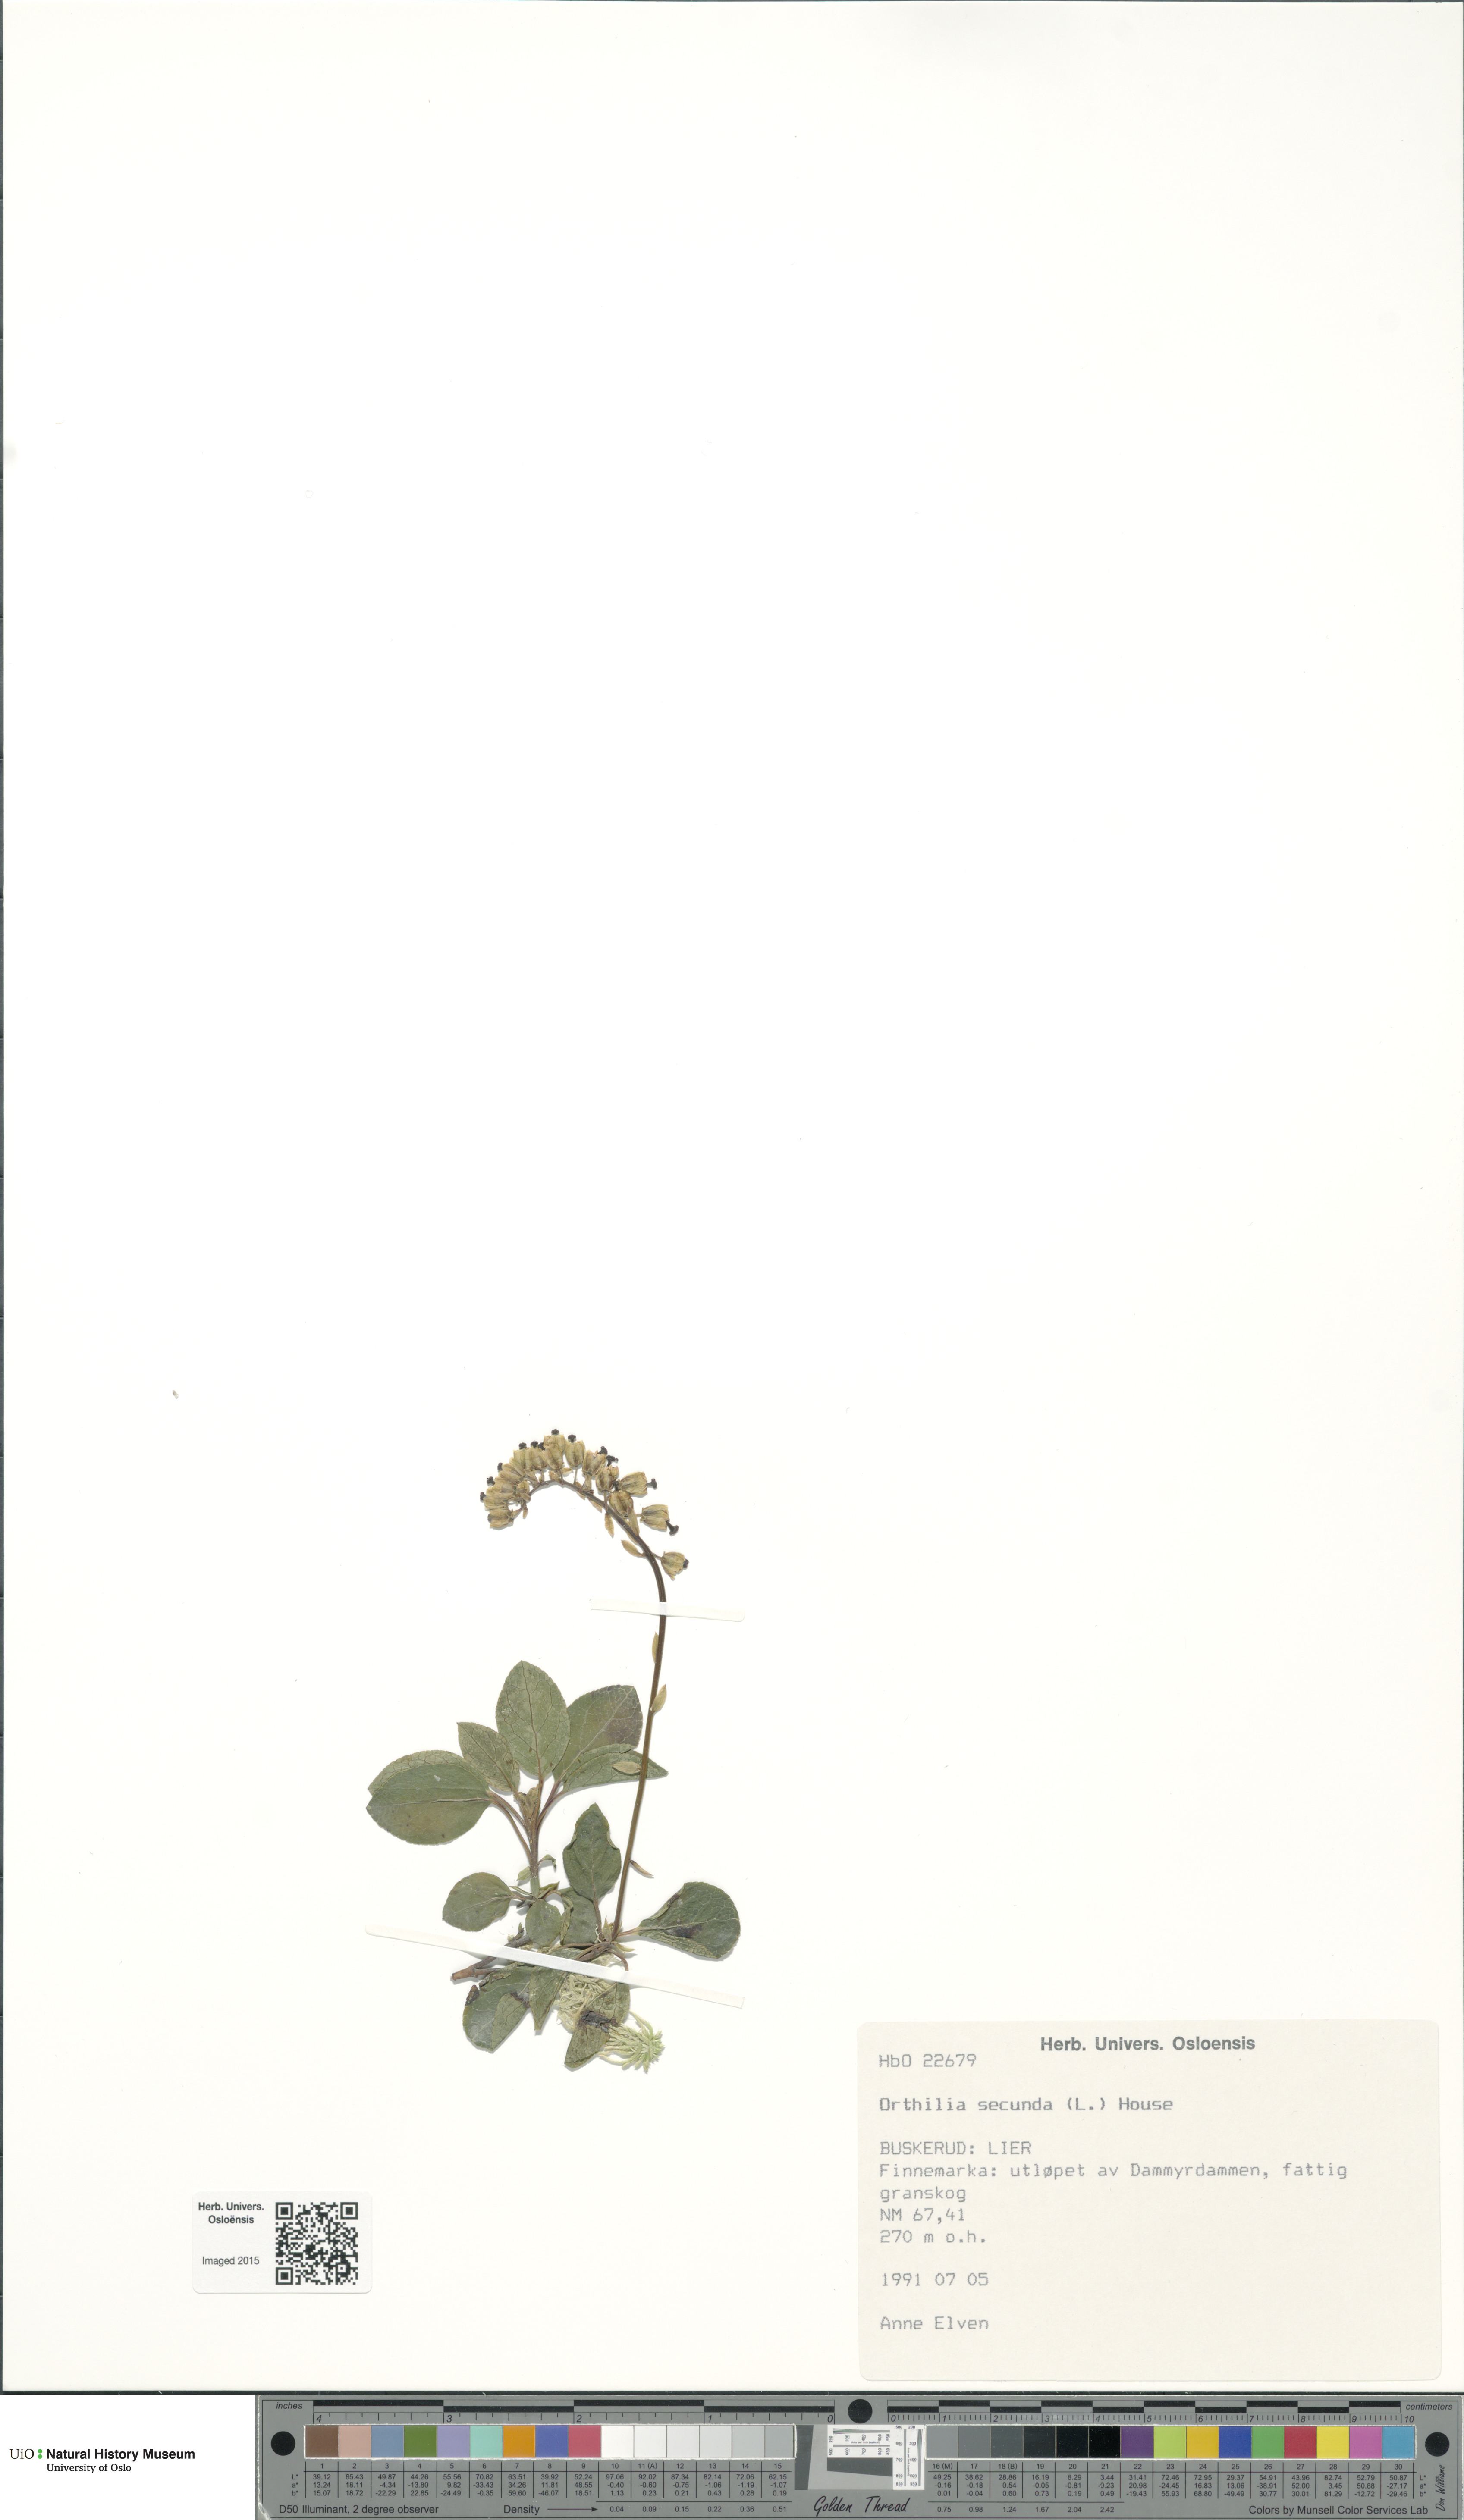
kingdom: Plantae
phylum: Tracheophyta
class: Magnoliopsida
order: Ericales
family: Ericaceae
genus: Orthilia
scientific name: Orthilia secunda
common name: One-sided orthilia
